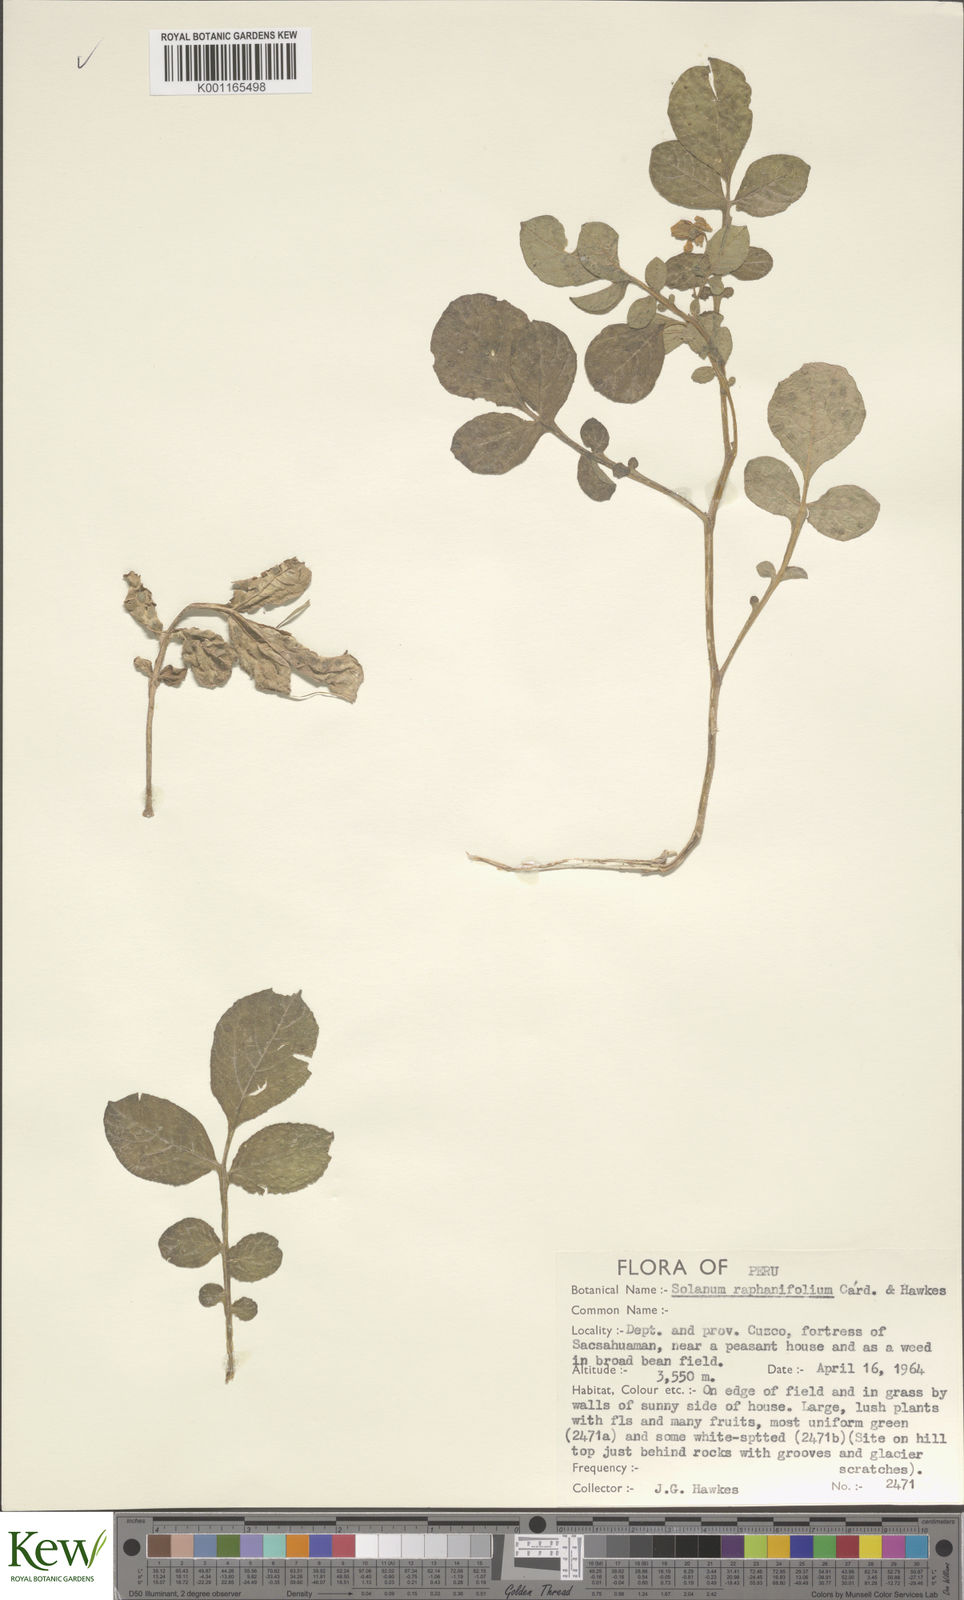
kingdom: Plantae
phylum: Tracheophyta
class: Magnoliopsida
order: Solanales
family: Solanaceae
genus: Solanum
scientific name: Solanum raphanifolium
